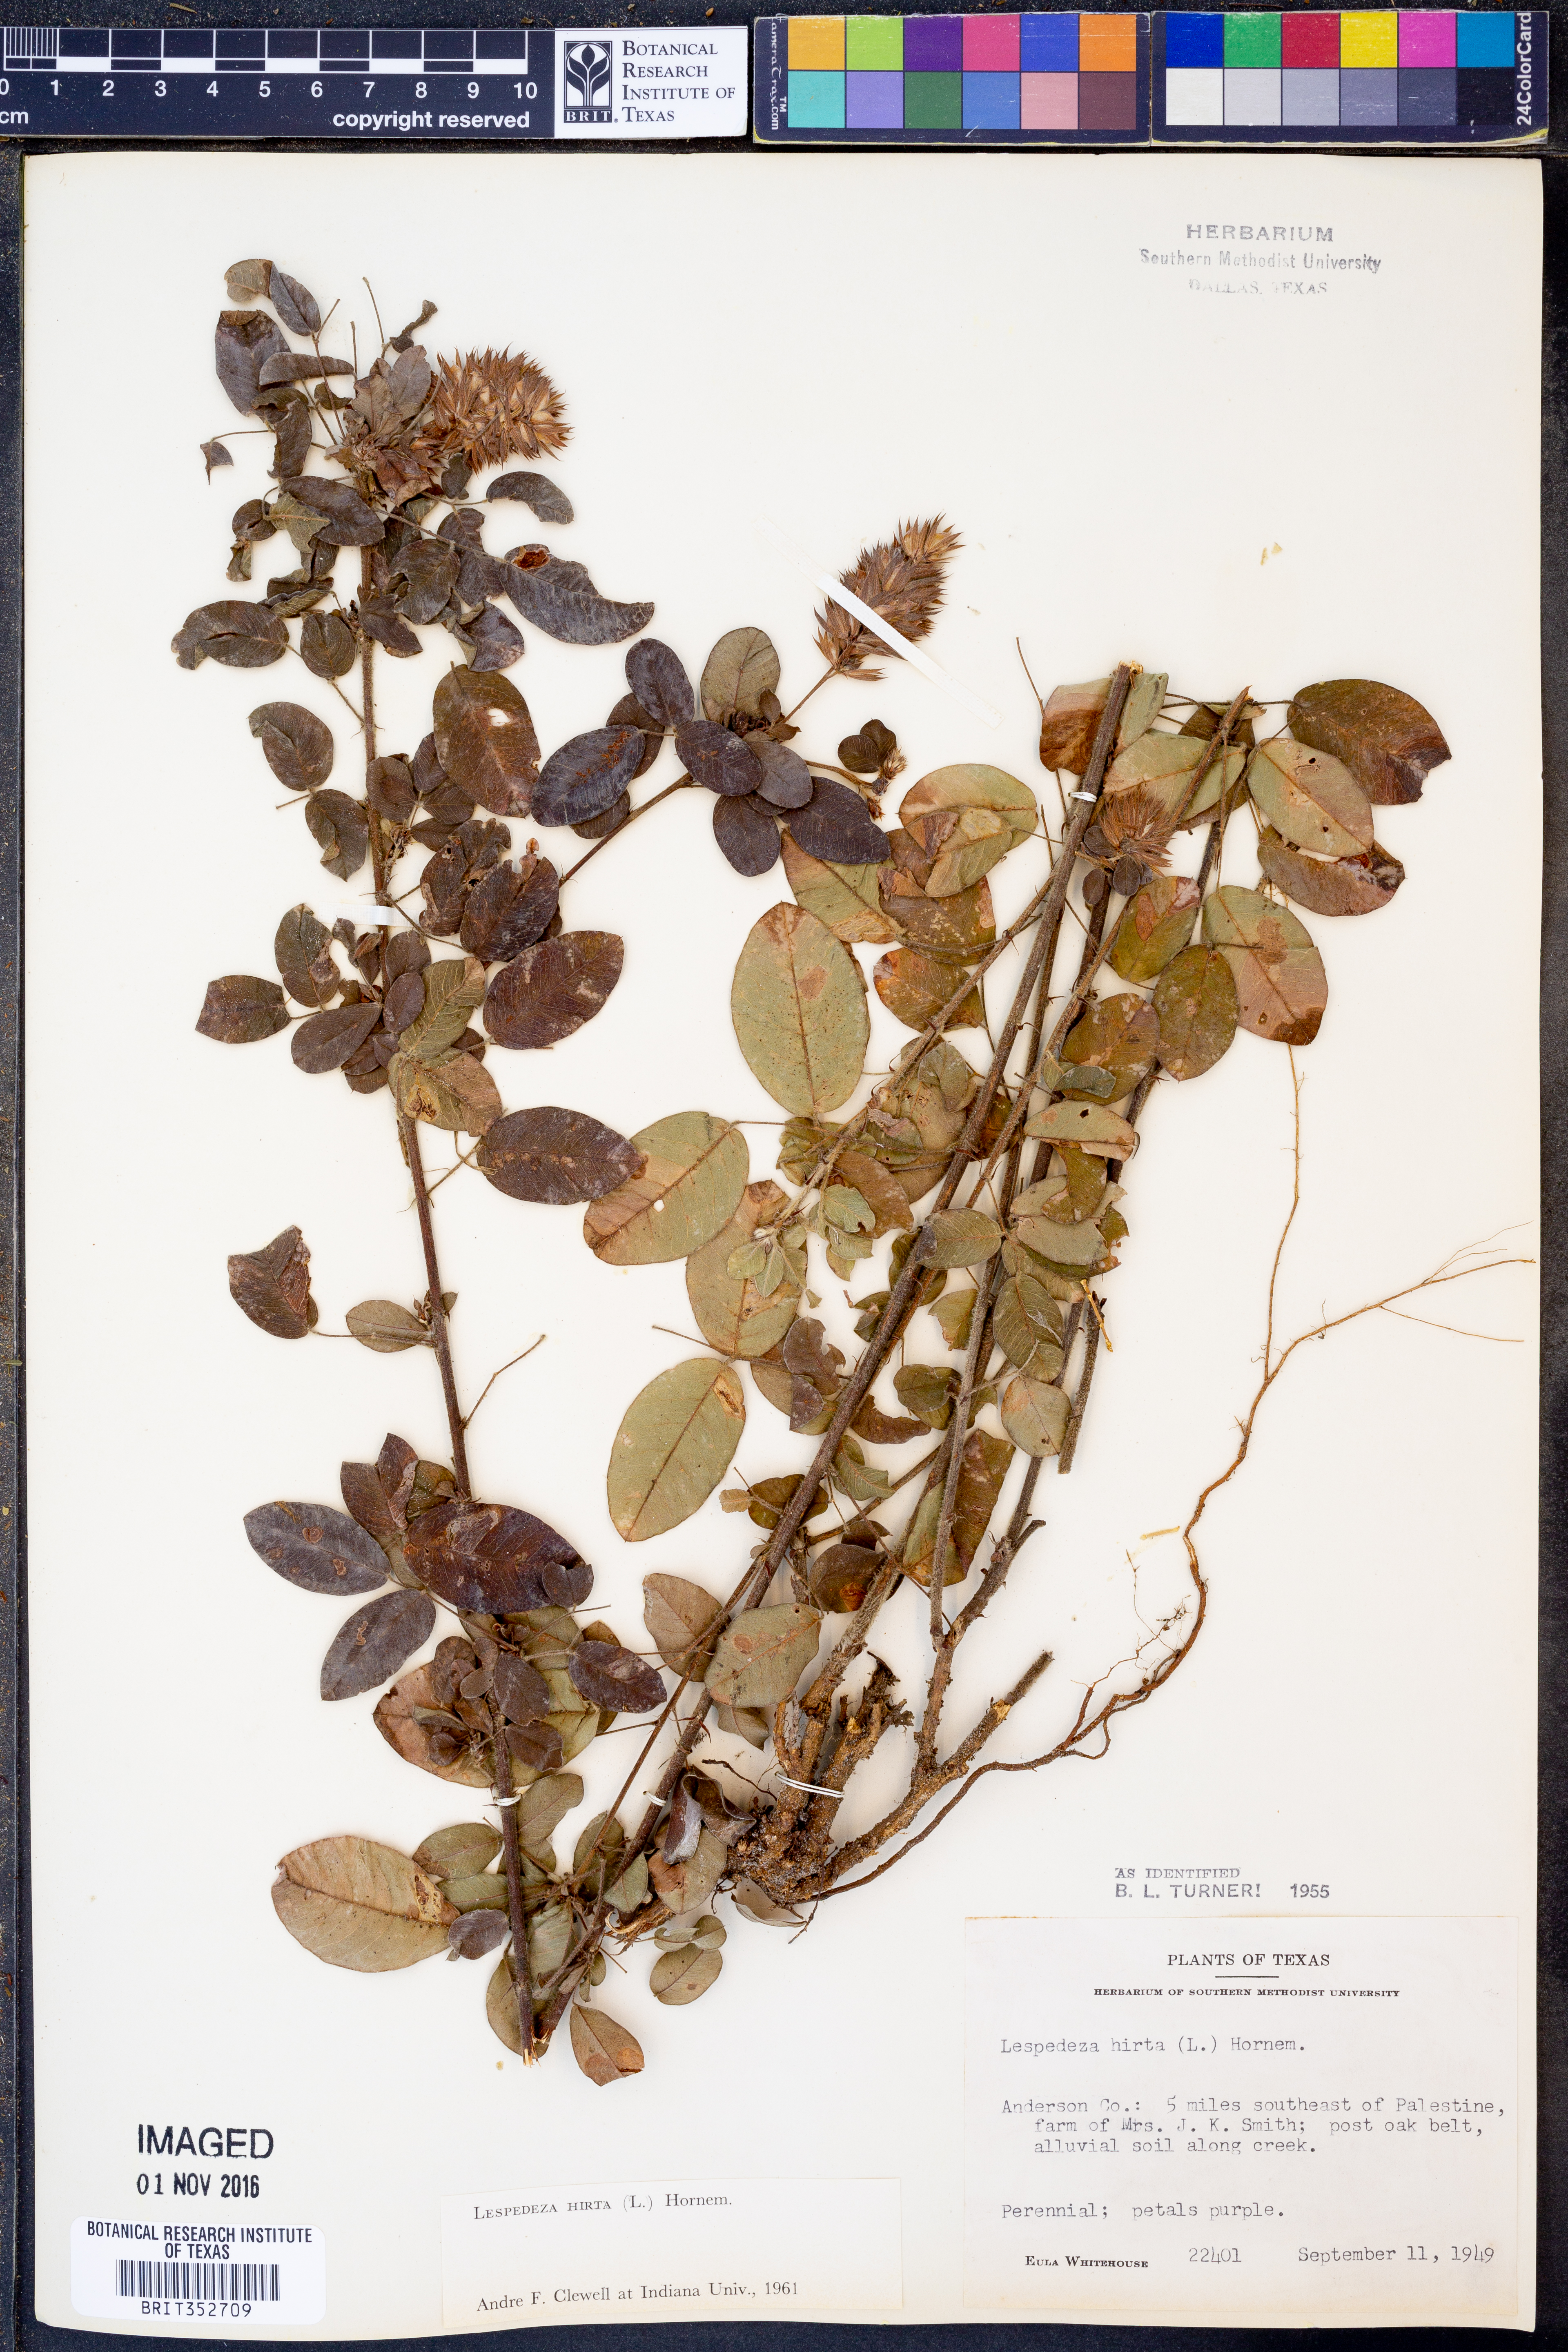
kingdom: Plantae
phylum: Tracheophyta
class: Magnoliopsida
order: Fabales
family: Fabaceae
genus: Lespedeza
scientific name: Lespedeza hirta
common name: Hairy lespedeza
